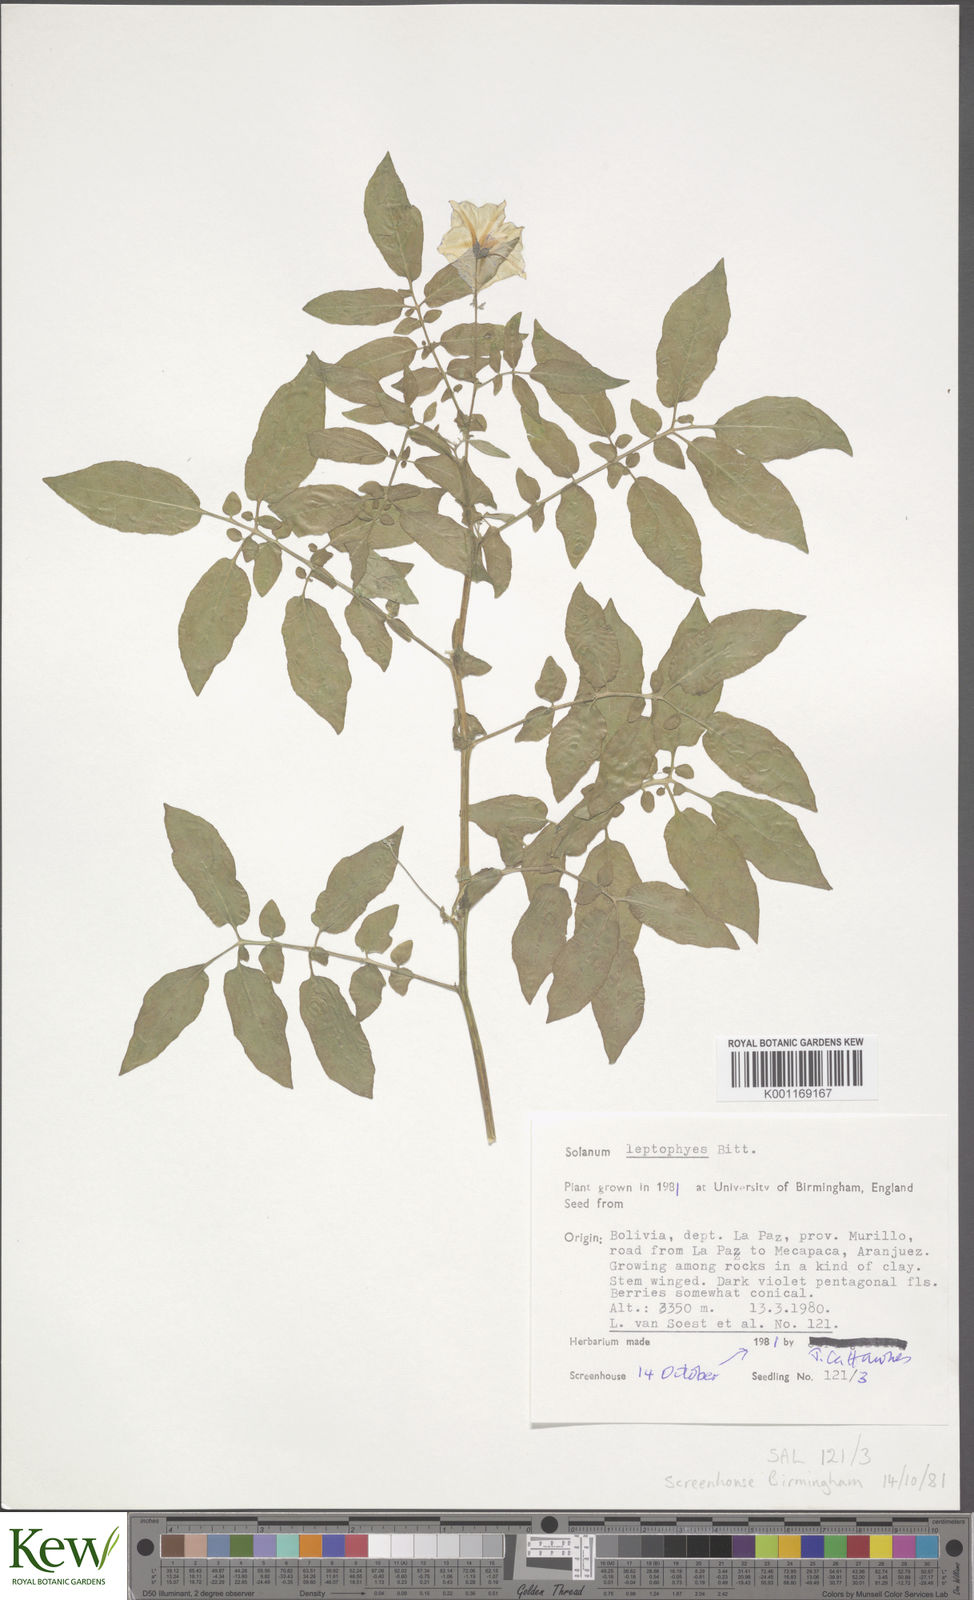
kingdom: Plantae
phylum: Tracheophyta
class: Magnoliopsida
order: Solanales
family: Solanaceae
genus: Solanum
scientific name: Solanum brevicaule
